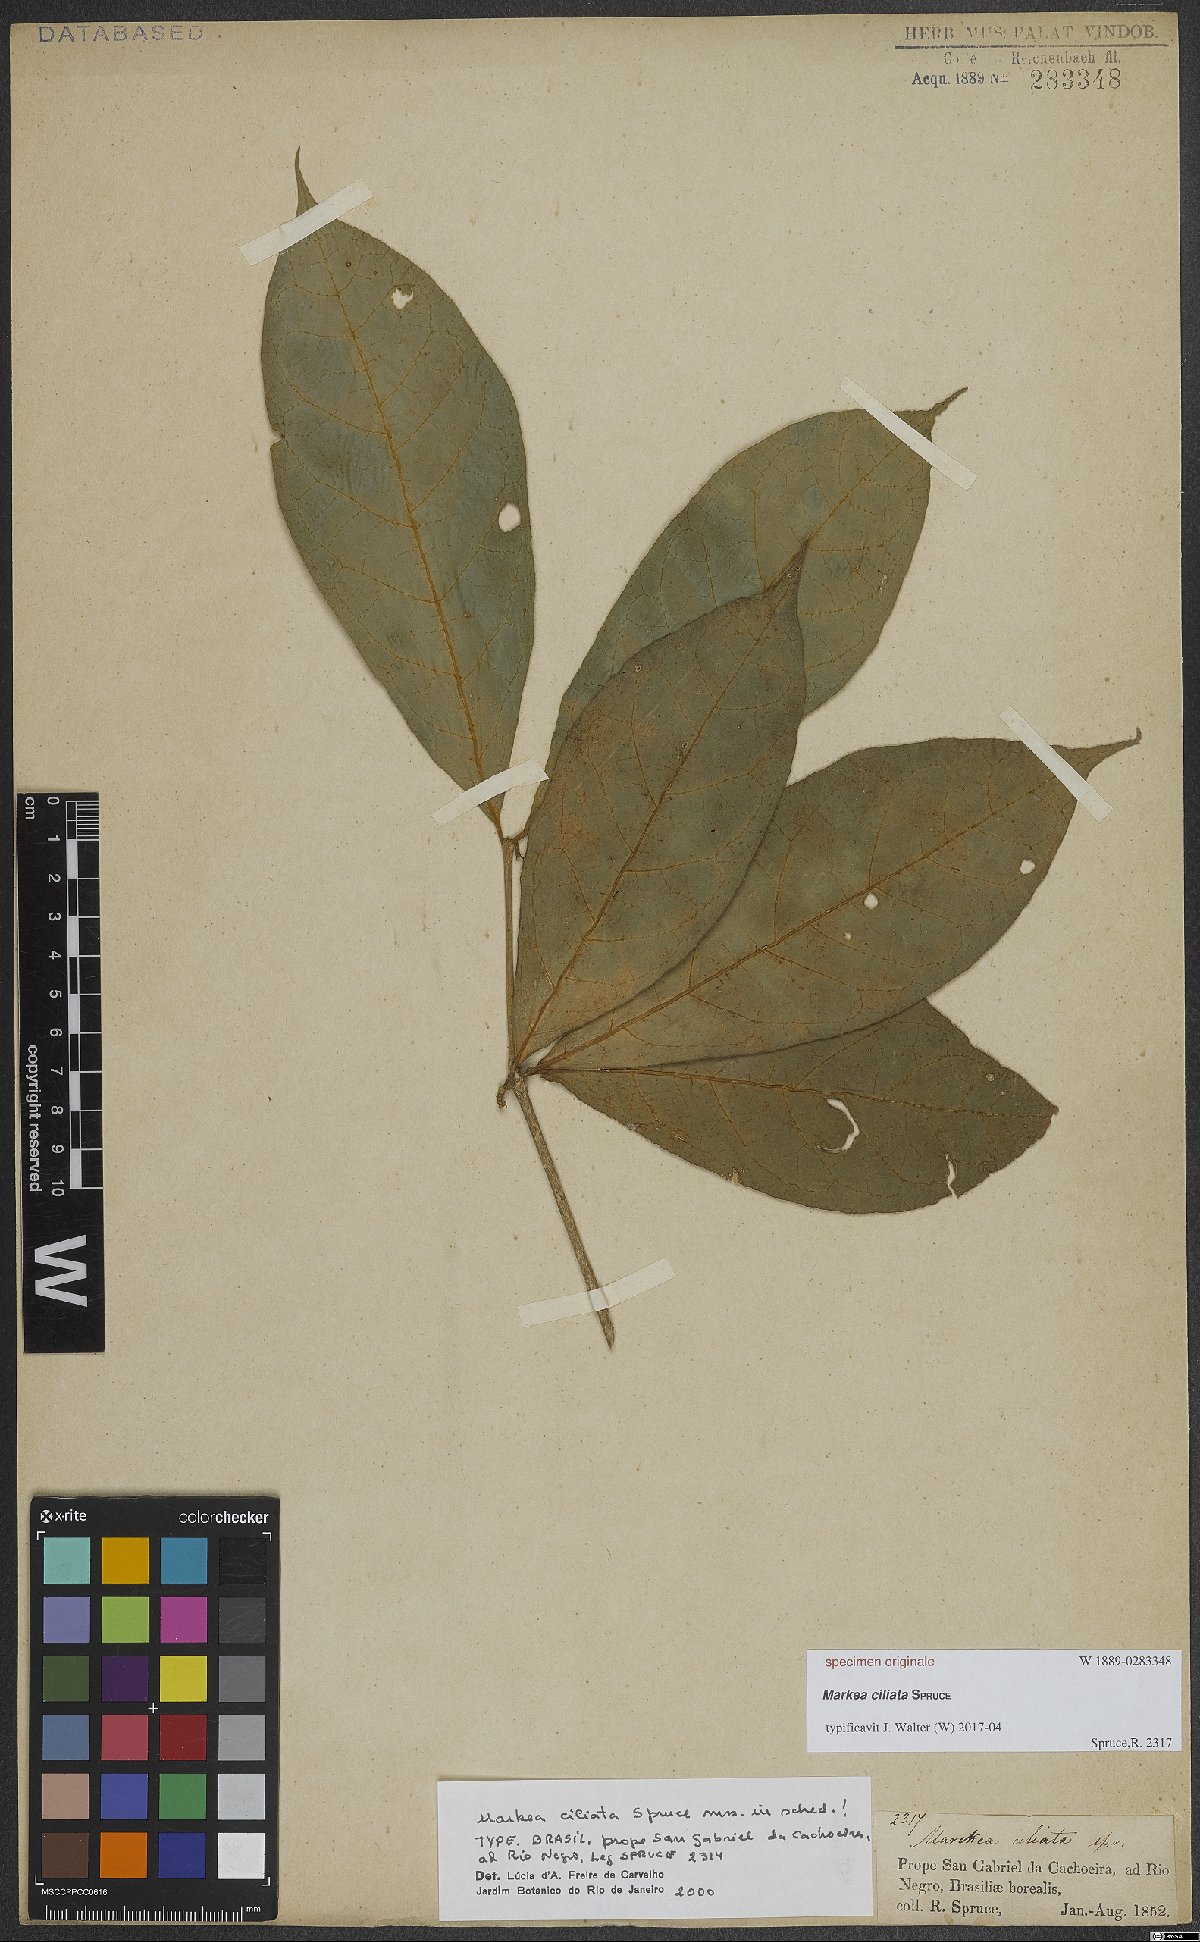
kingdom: Plantae
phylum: Tracheophyta
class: Magnoliopsida
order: Solanales
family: Solanaceae
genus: Markea
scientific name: Markea
